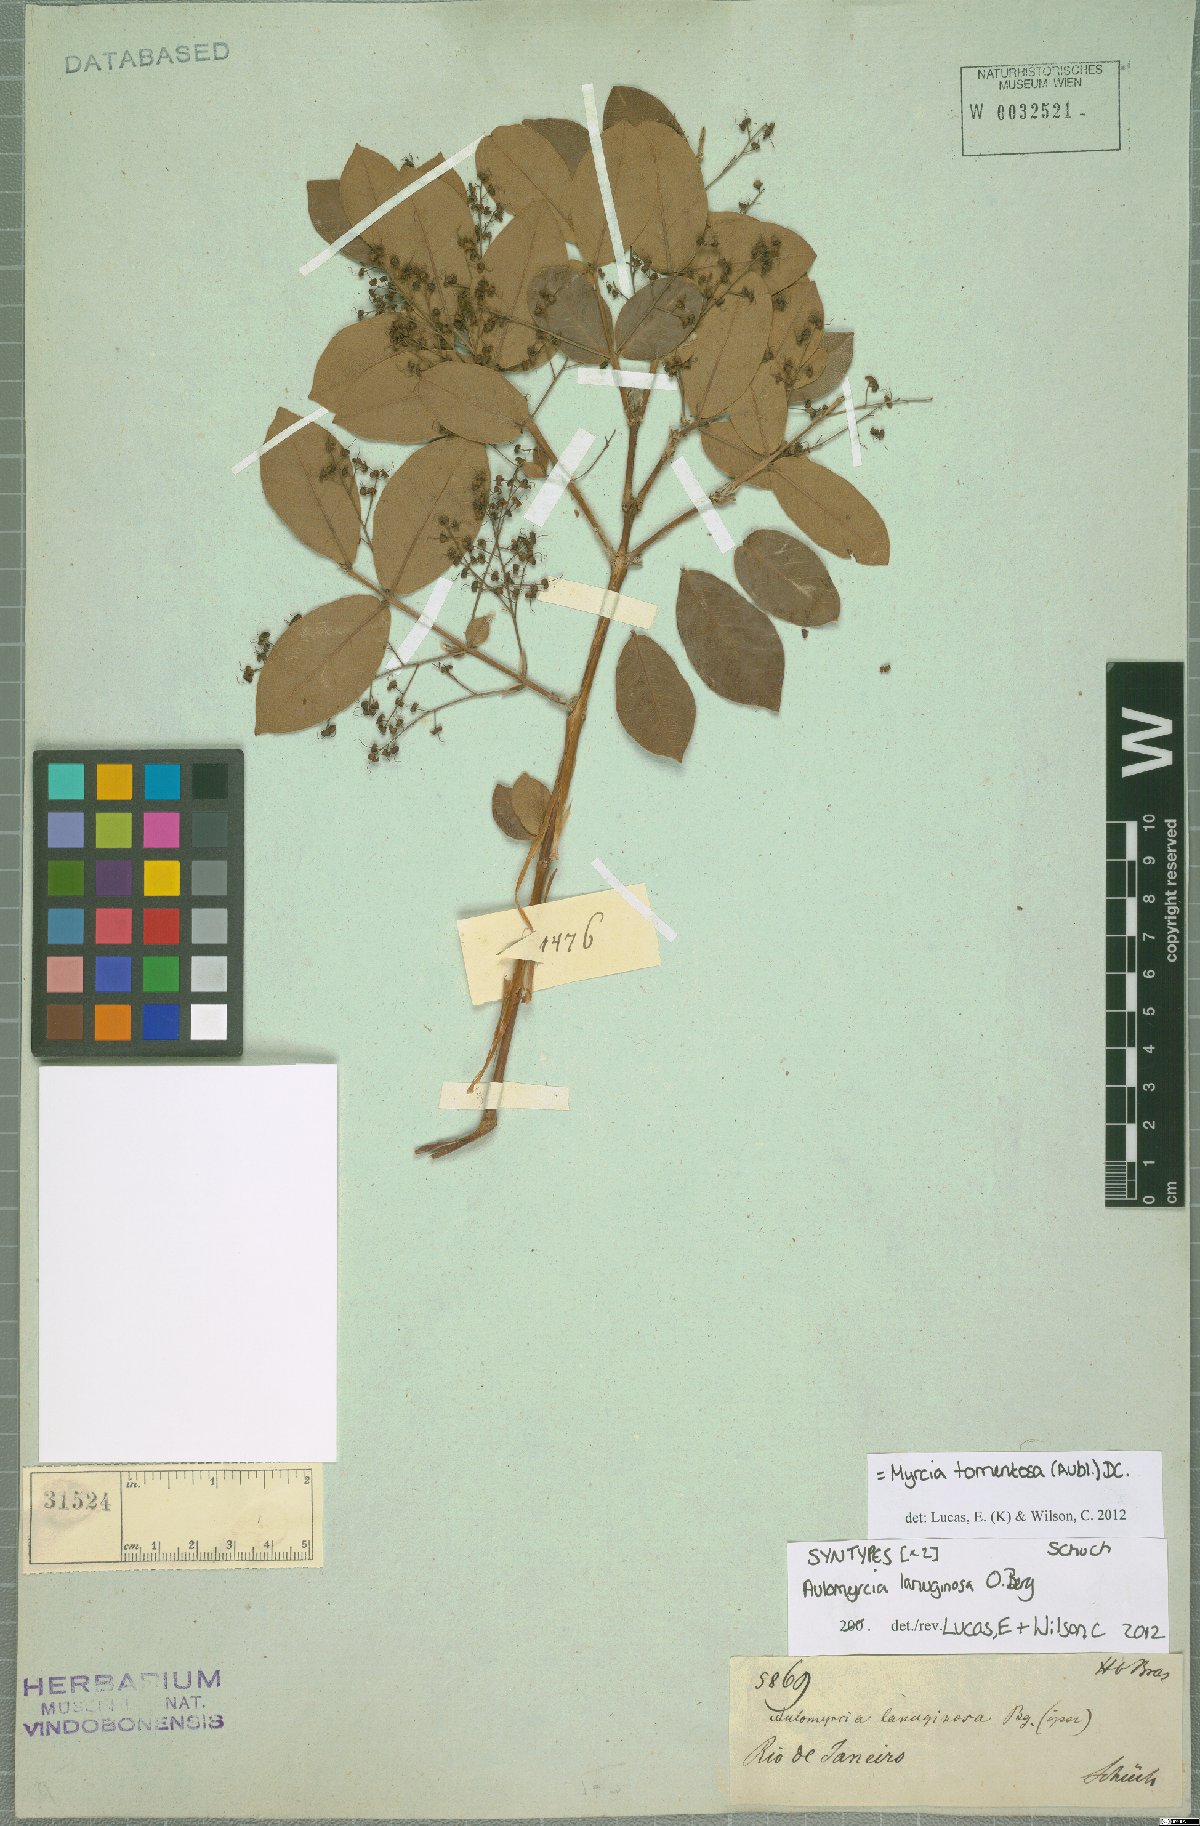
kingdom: Plantae
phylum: Tracheophyta
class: Magnoliopsida
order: Myrtales
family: Myrtaceae
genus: Myrcia
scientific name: Myrcia tomentosa
